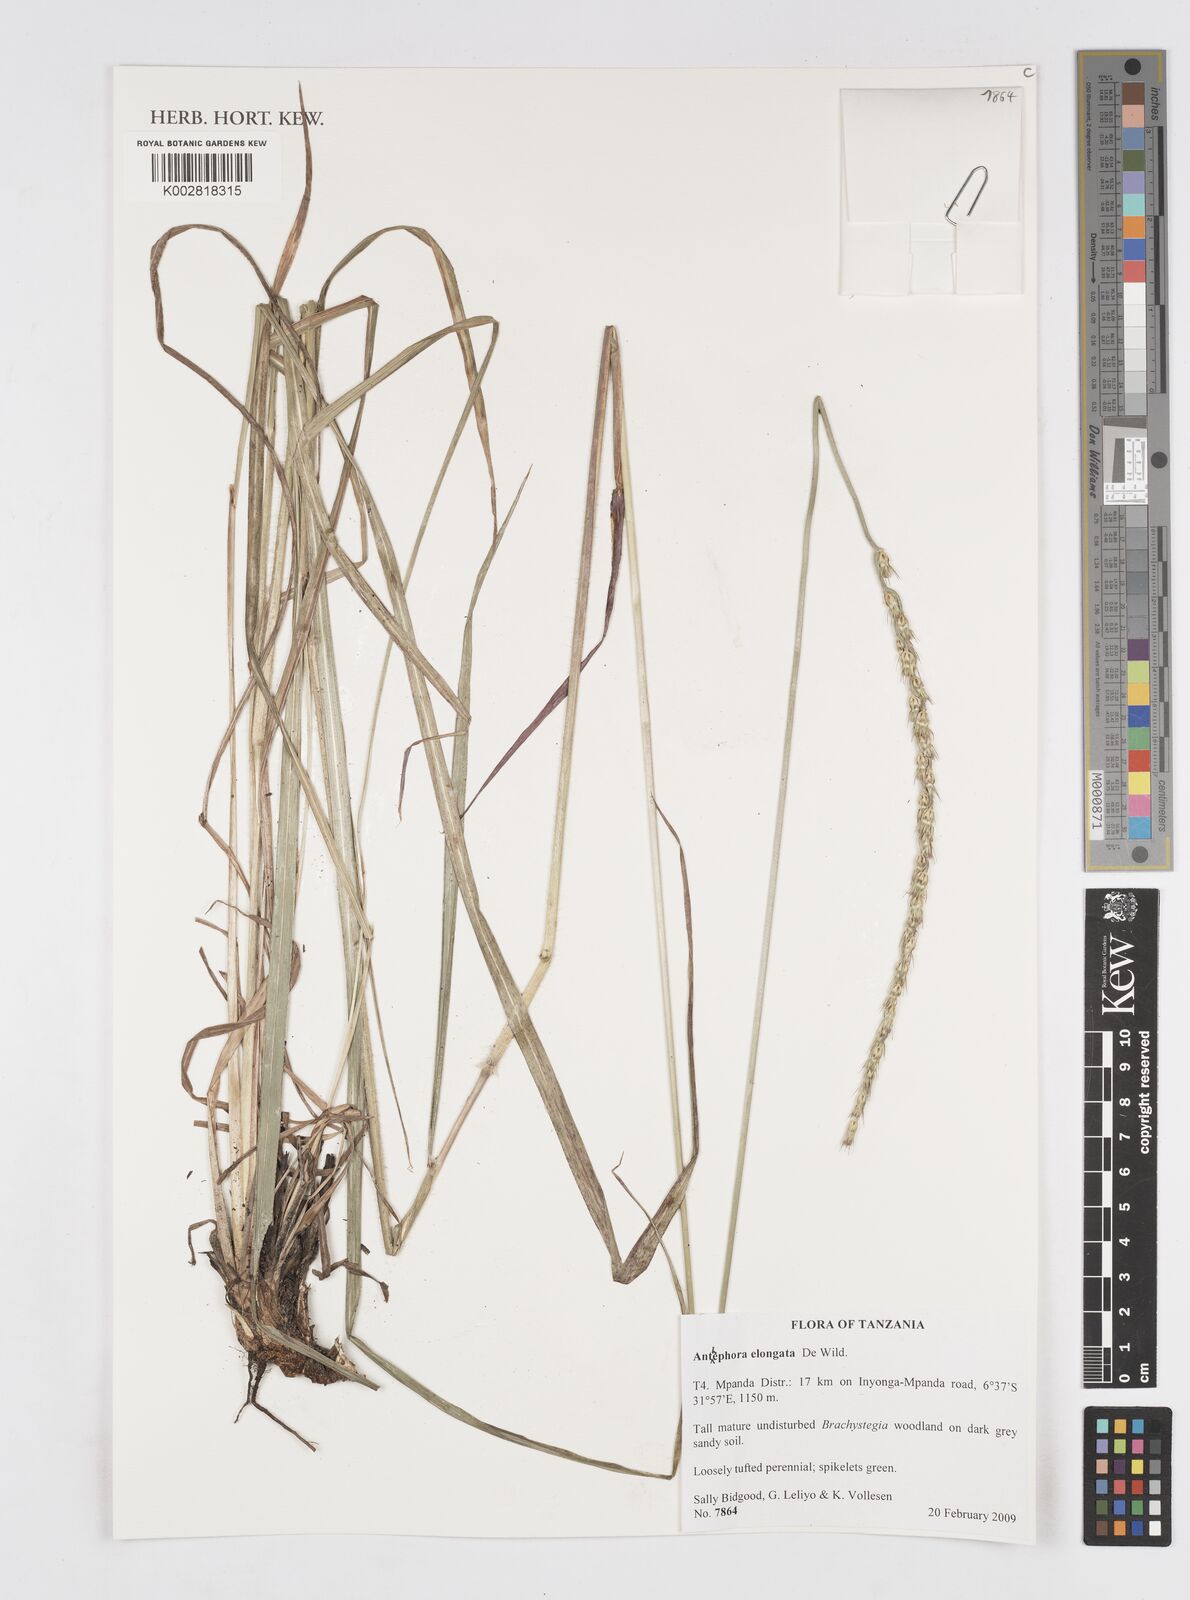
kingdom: Plantae
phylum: Tracheophyta
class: Liliopsida
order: Poales
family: Poaceae
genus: Anthephora
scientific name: Anthephora elongata
